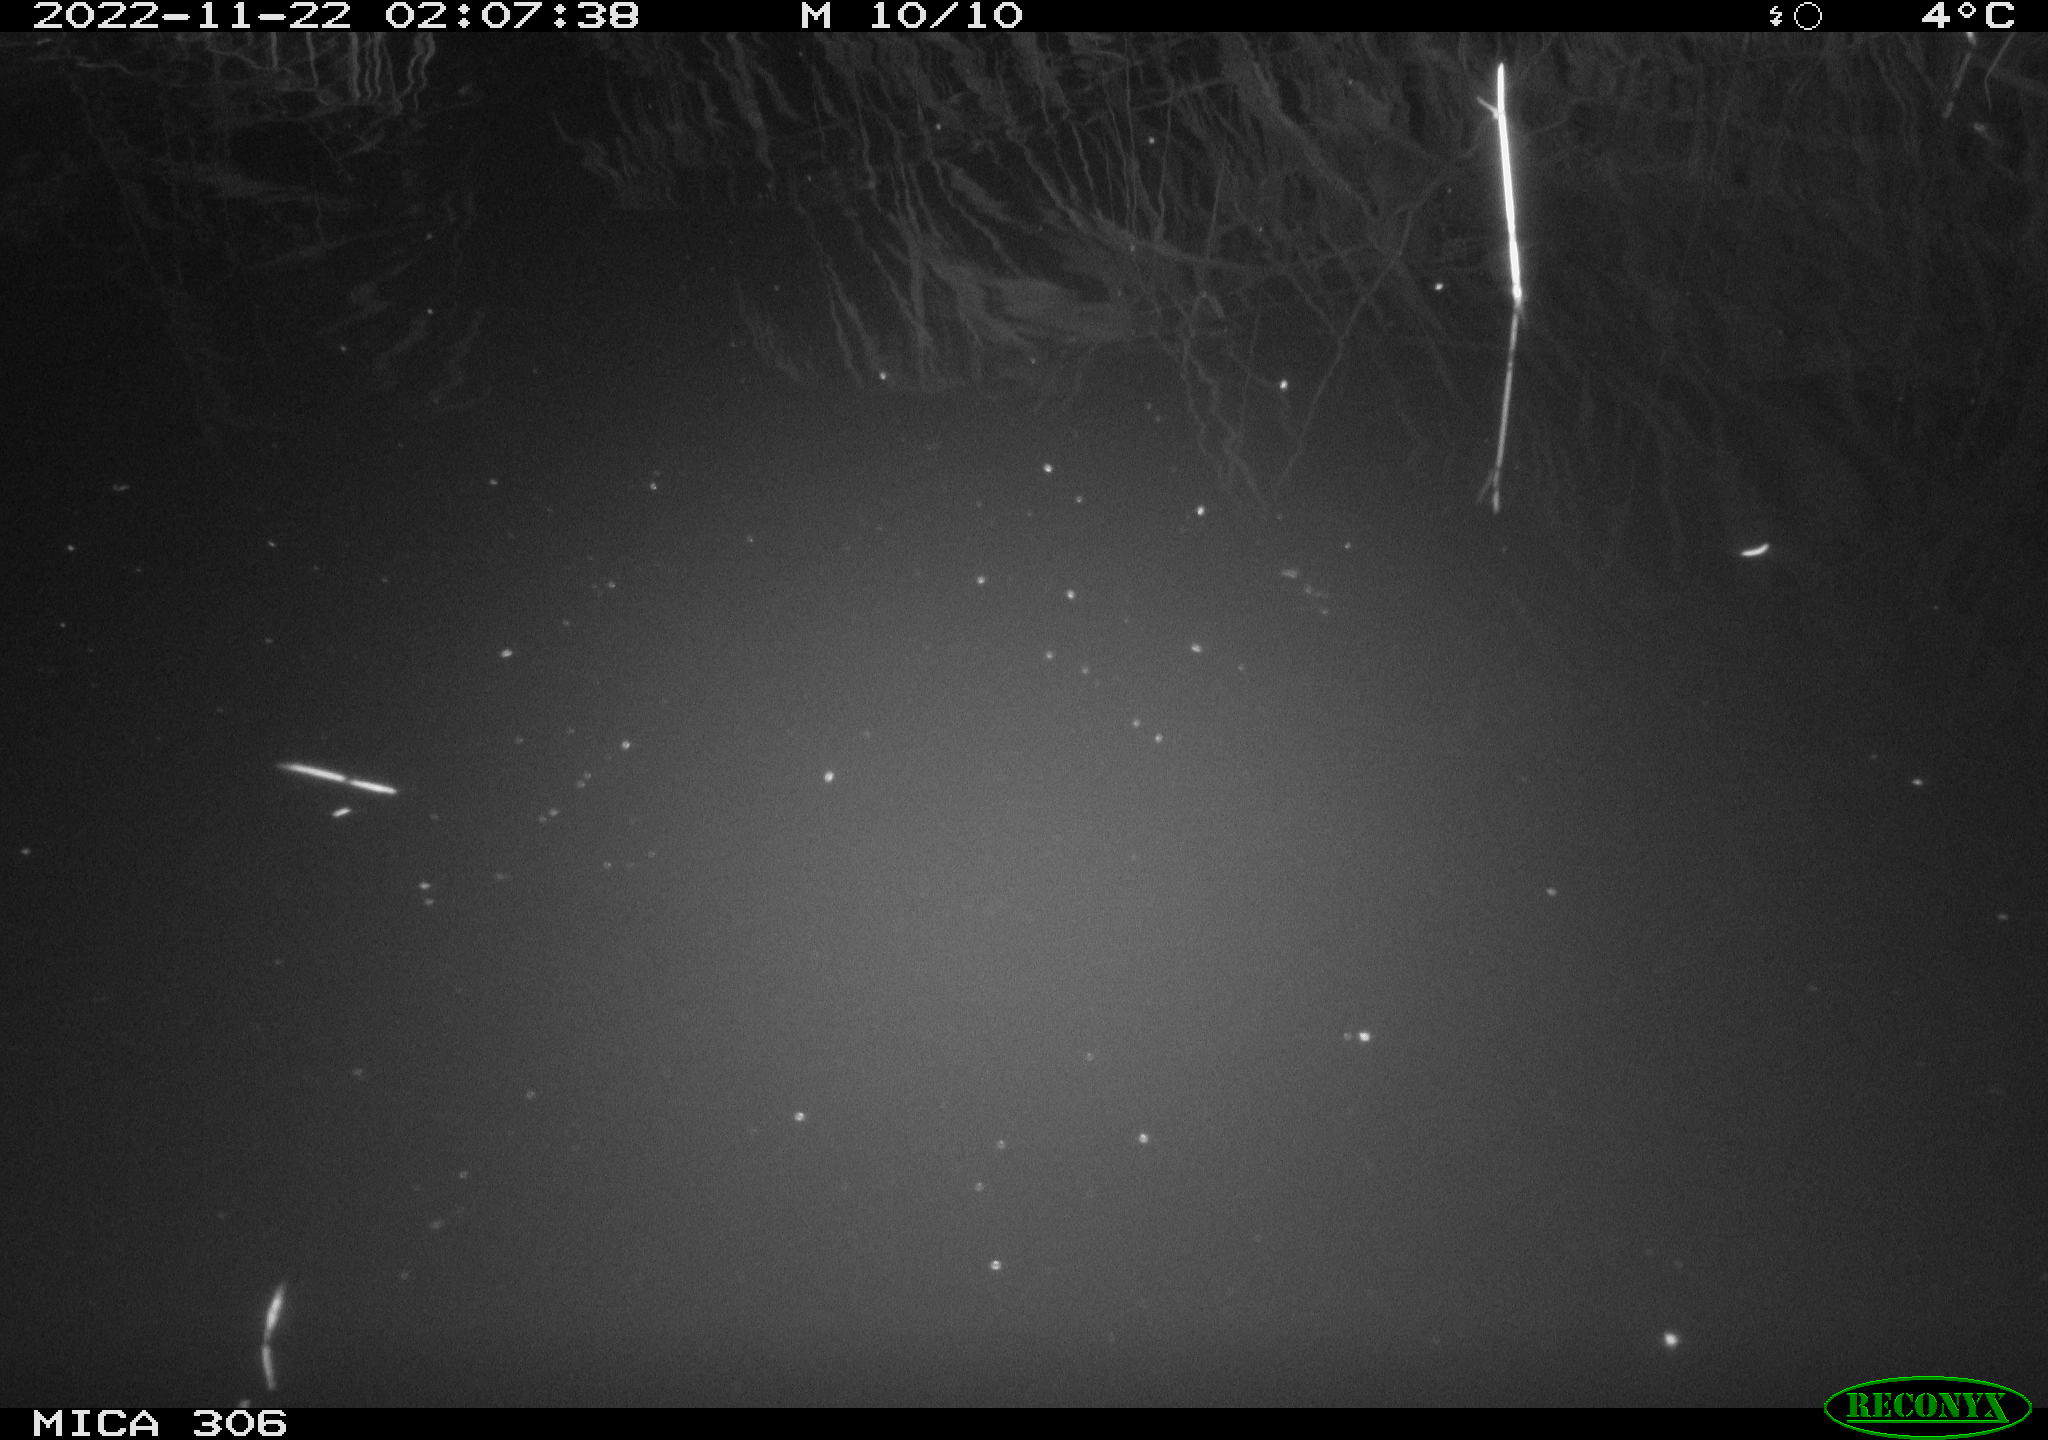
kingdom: Animalia
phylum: Chordata
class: Mammalia
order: Rodentia
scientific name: Rodentia
